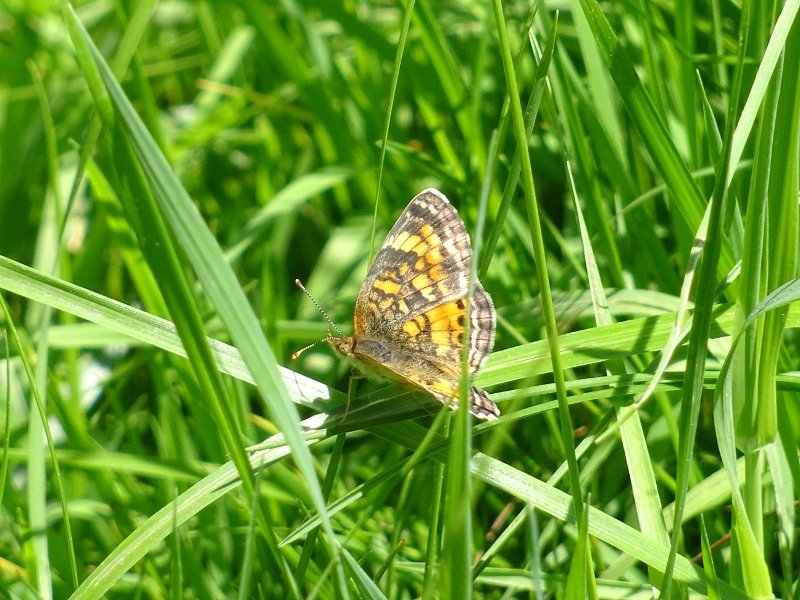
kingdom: Animalia
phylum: Arthropoda
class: Insecta
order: Lepidoptera
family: Nymphalidae
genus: Phyciodes
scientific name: Phyciodes tharos
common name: Northern Crescent
